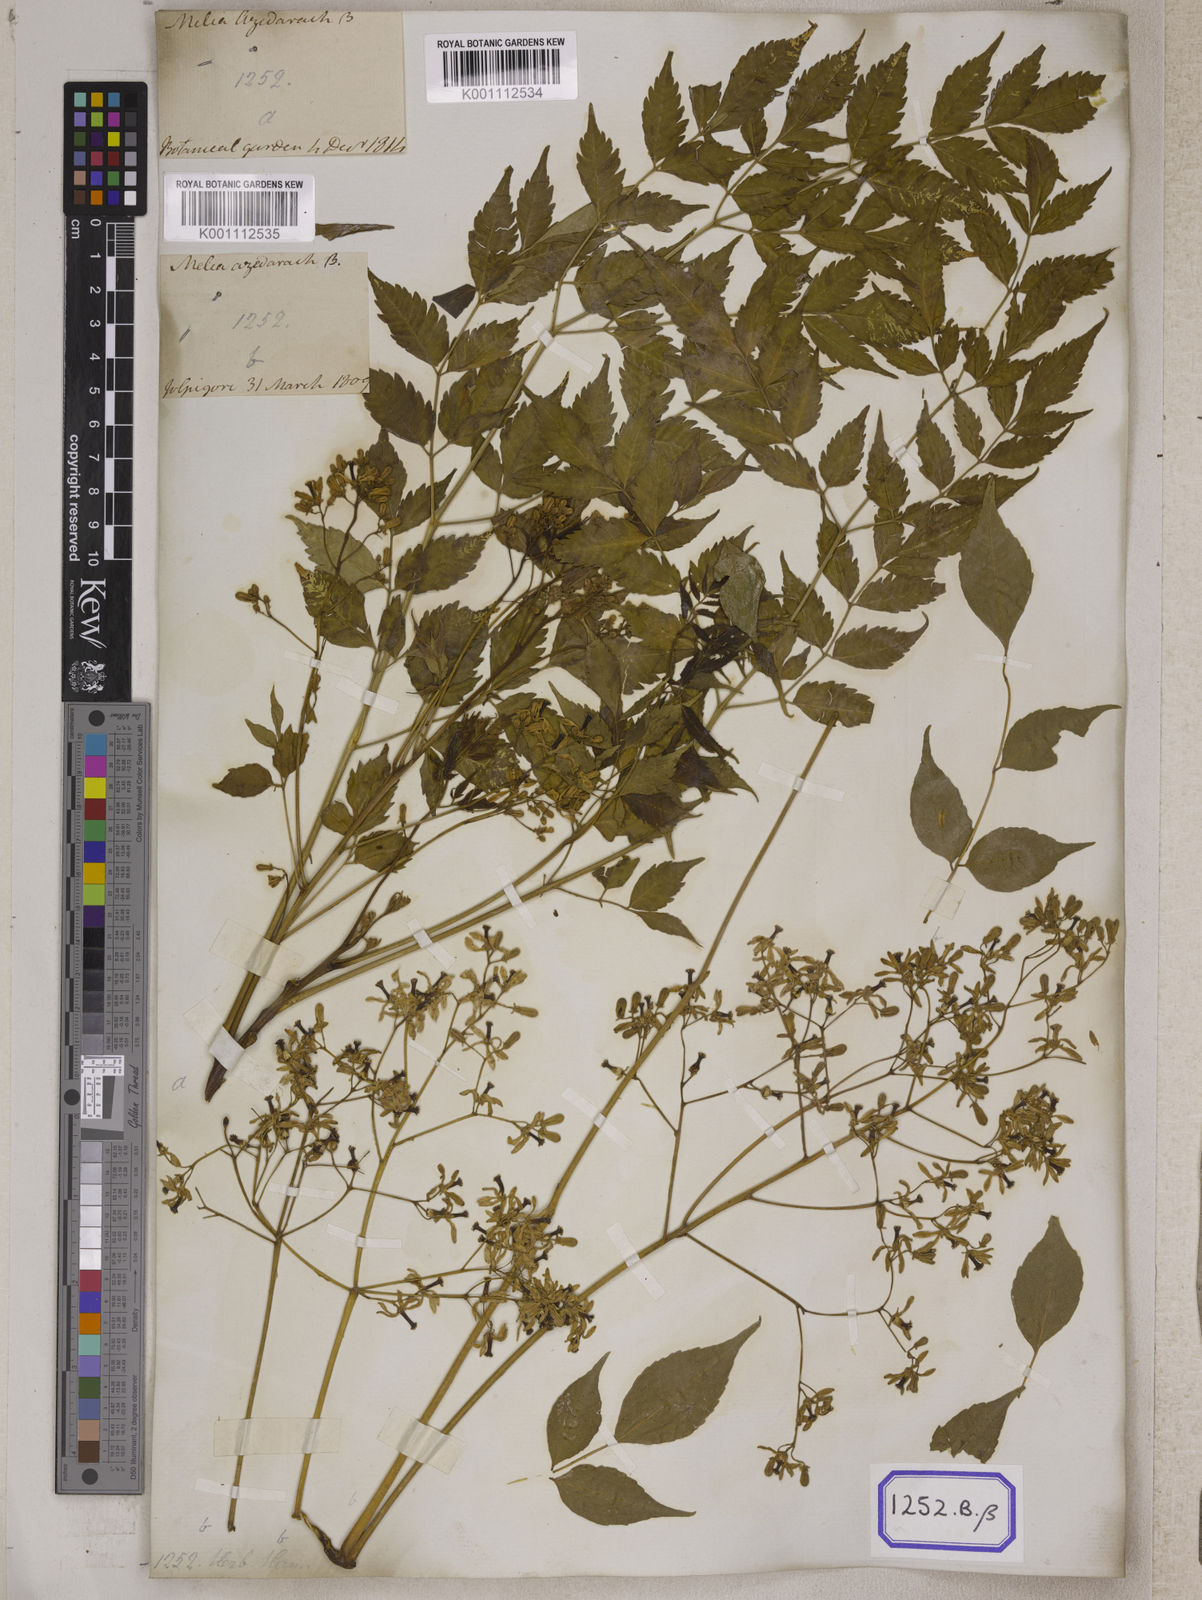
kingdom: Plantae
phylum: Tracheophyta
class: Magnoliopsida
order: Sapindales
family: Meliaceae
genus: Melia
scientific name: Melia azedarach
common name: Chinaberrytree
